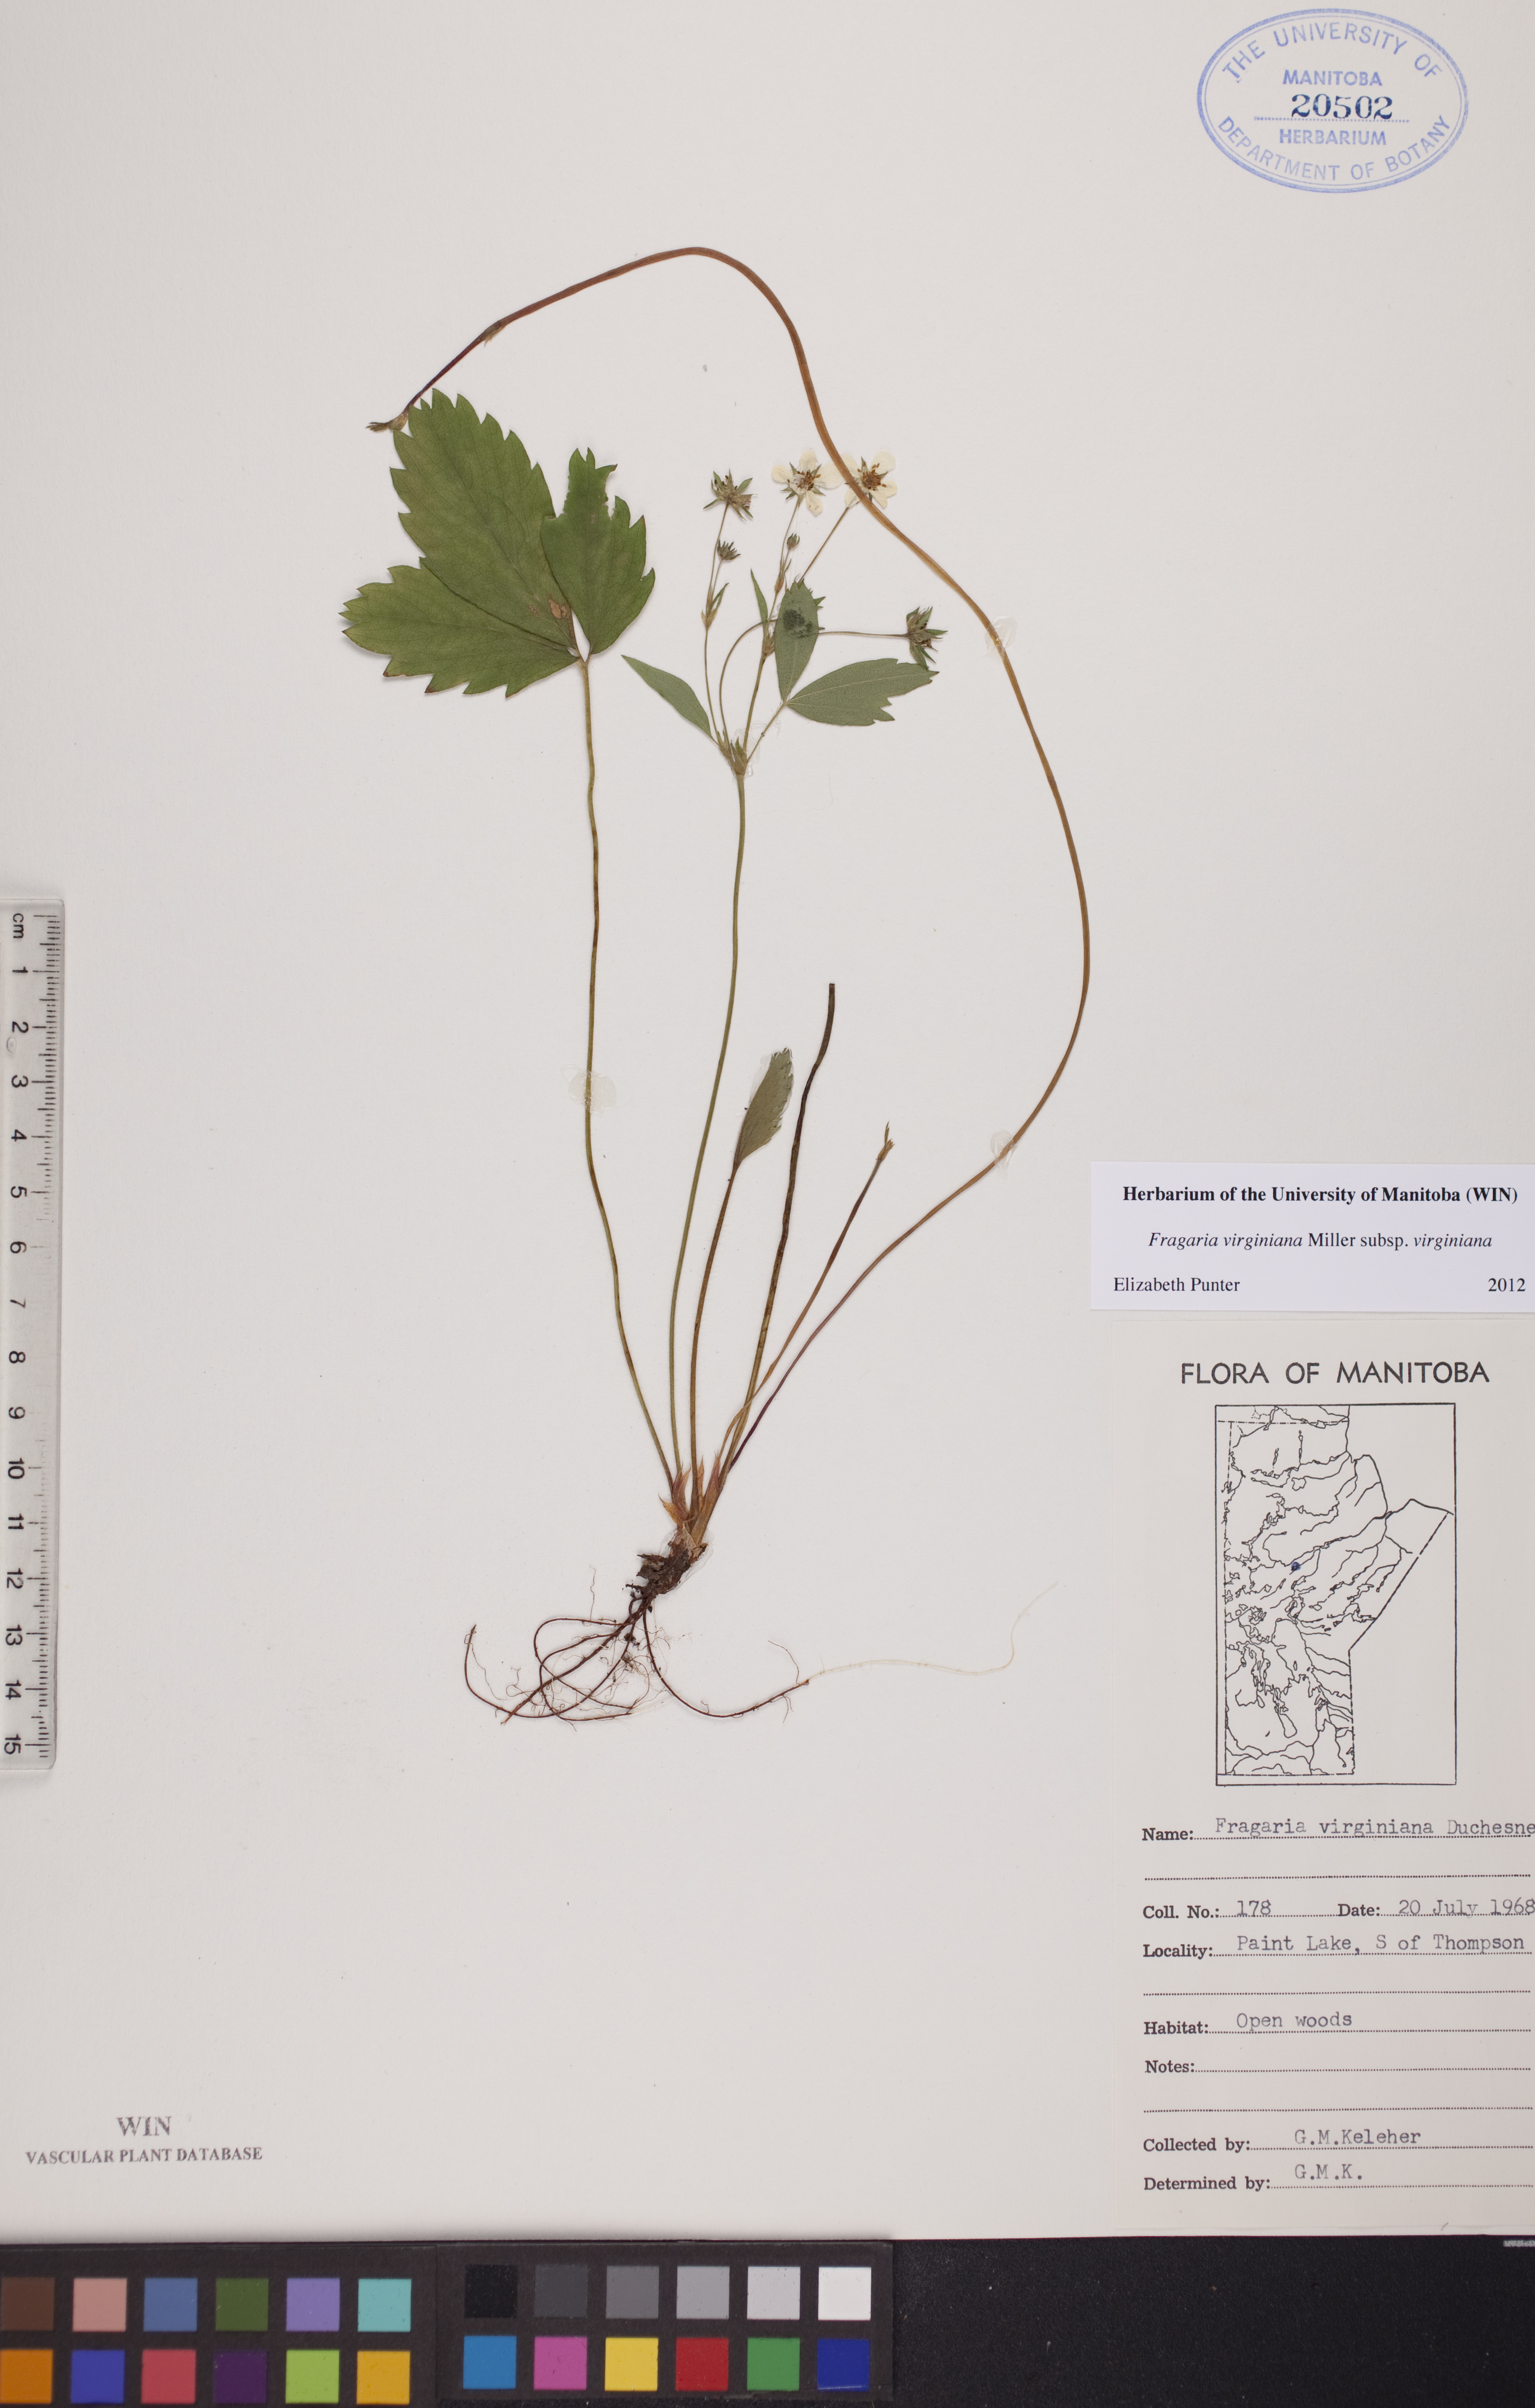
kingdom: Plantae
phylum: Tracheophyta
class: Magnoliopsida
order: Rosales
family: Rosaceae
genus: Fragaria
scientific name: Fragaria virginiana
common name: Thickleaved wild strawberry
